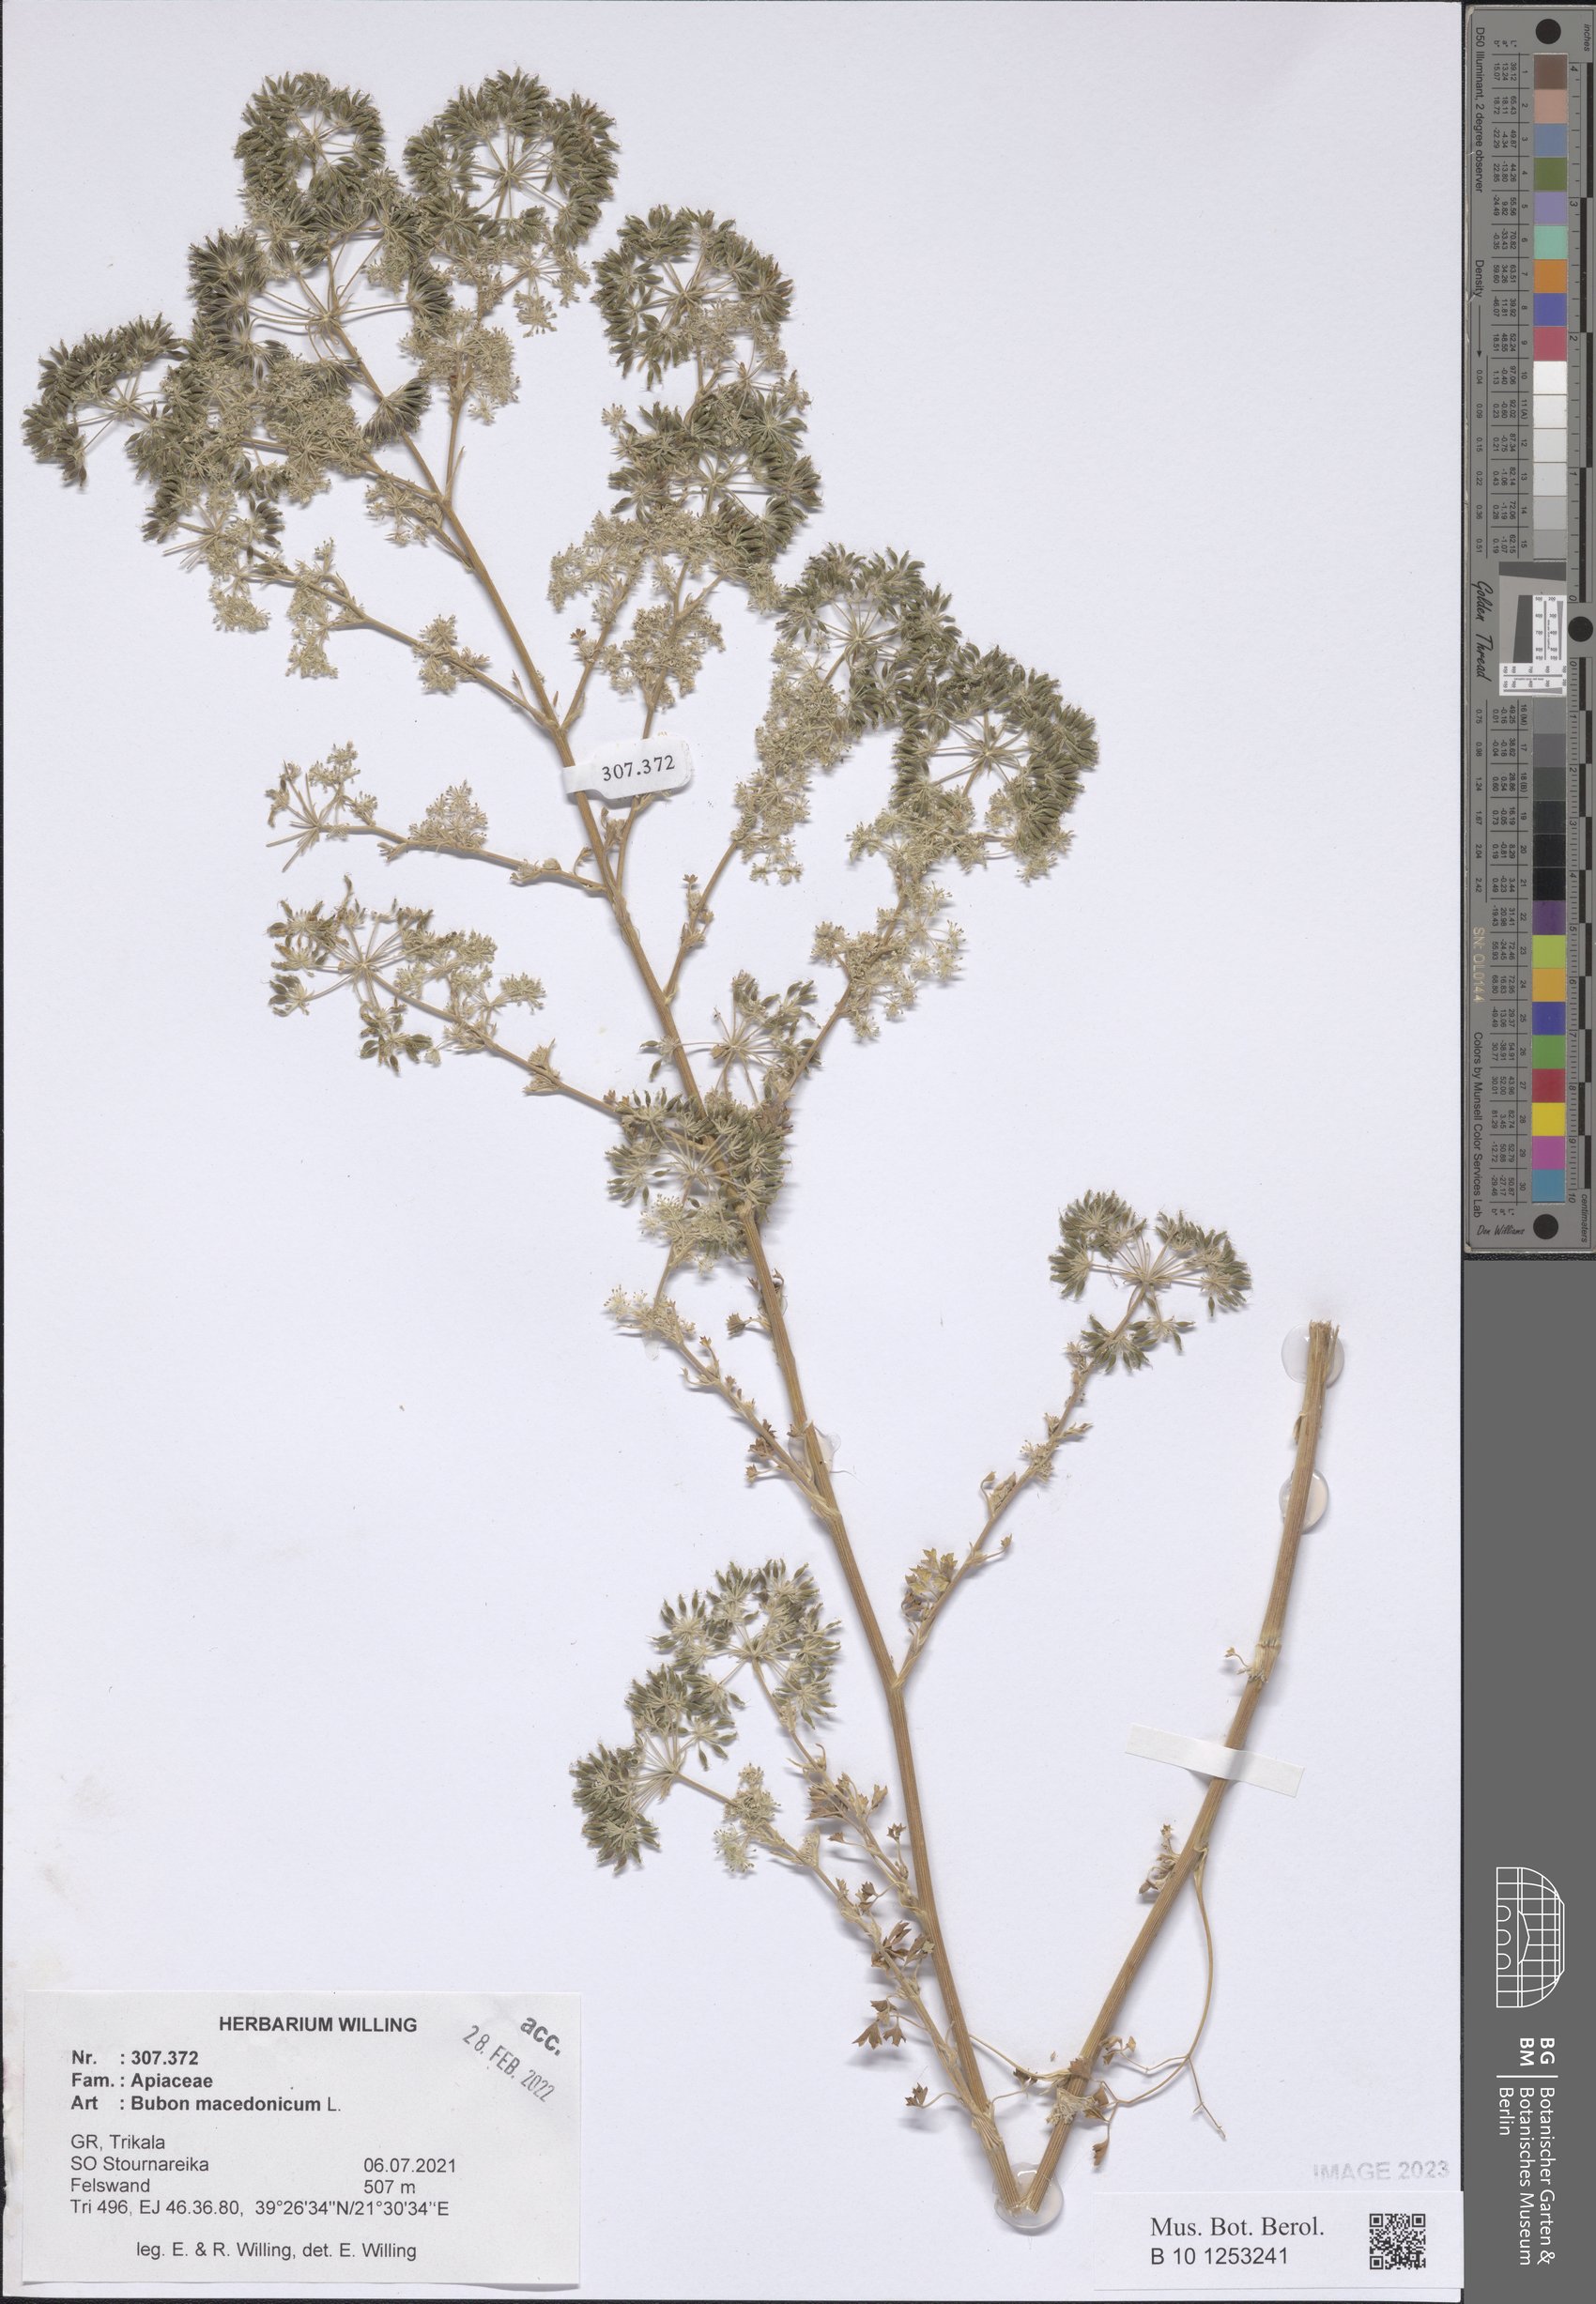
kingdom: Plantae
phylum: Tracheophyta
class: Magnoliopsida
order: Apiales
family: Apiaceae
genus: Bubon
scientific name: Bubon macedonicum
